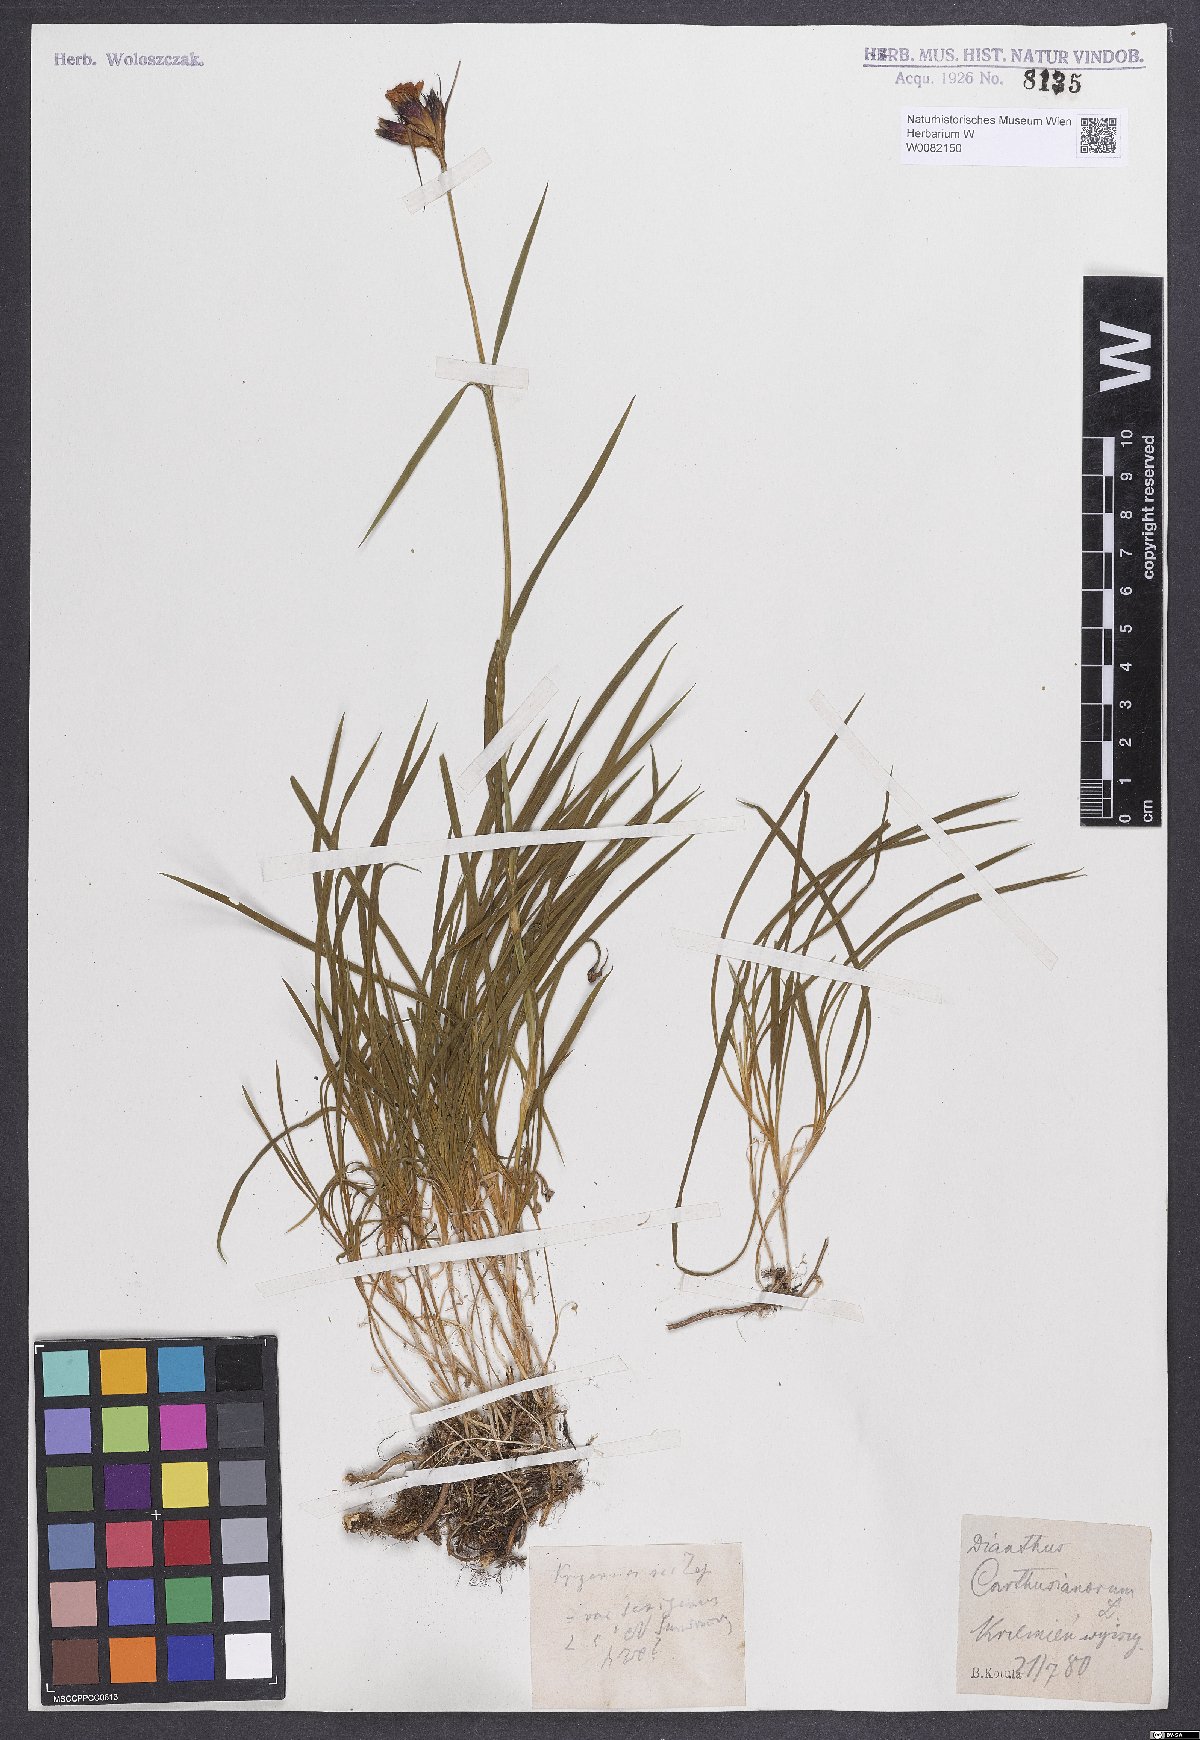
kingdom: Plantae
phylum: Tracheophyta
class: Magnoliopsida
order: Caryophyllales
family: Caryophyllaceae
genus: Dianthus
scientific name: Dianthus carthusianorum
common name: Carthusian pink
